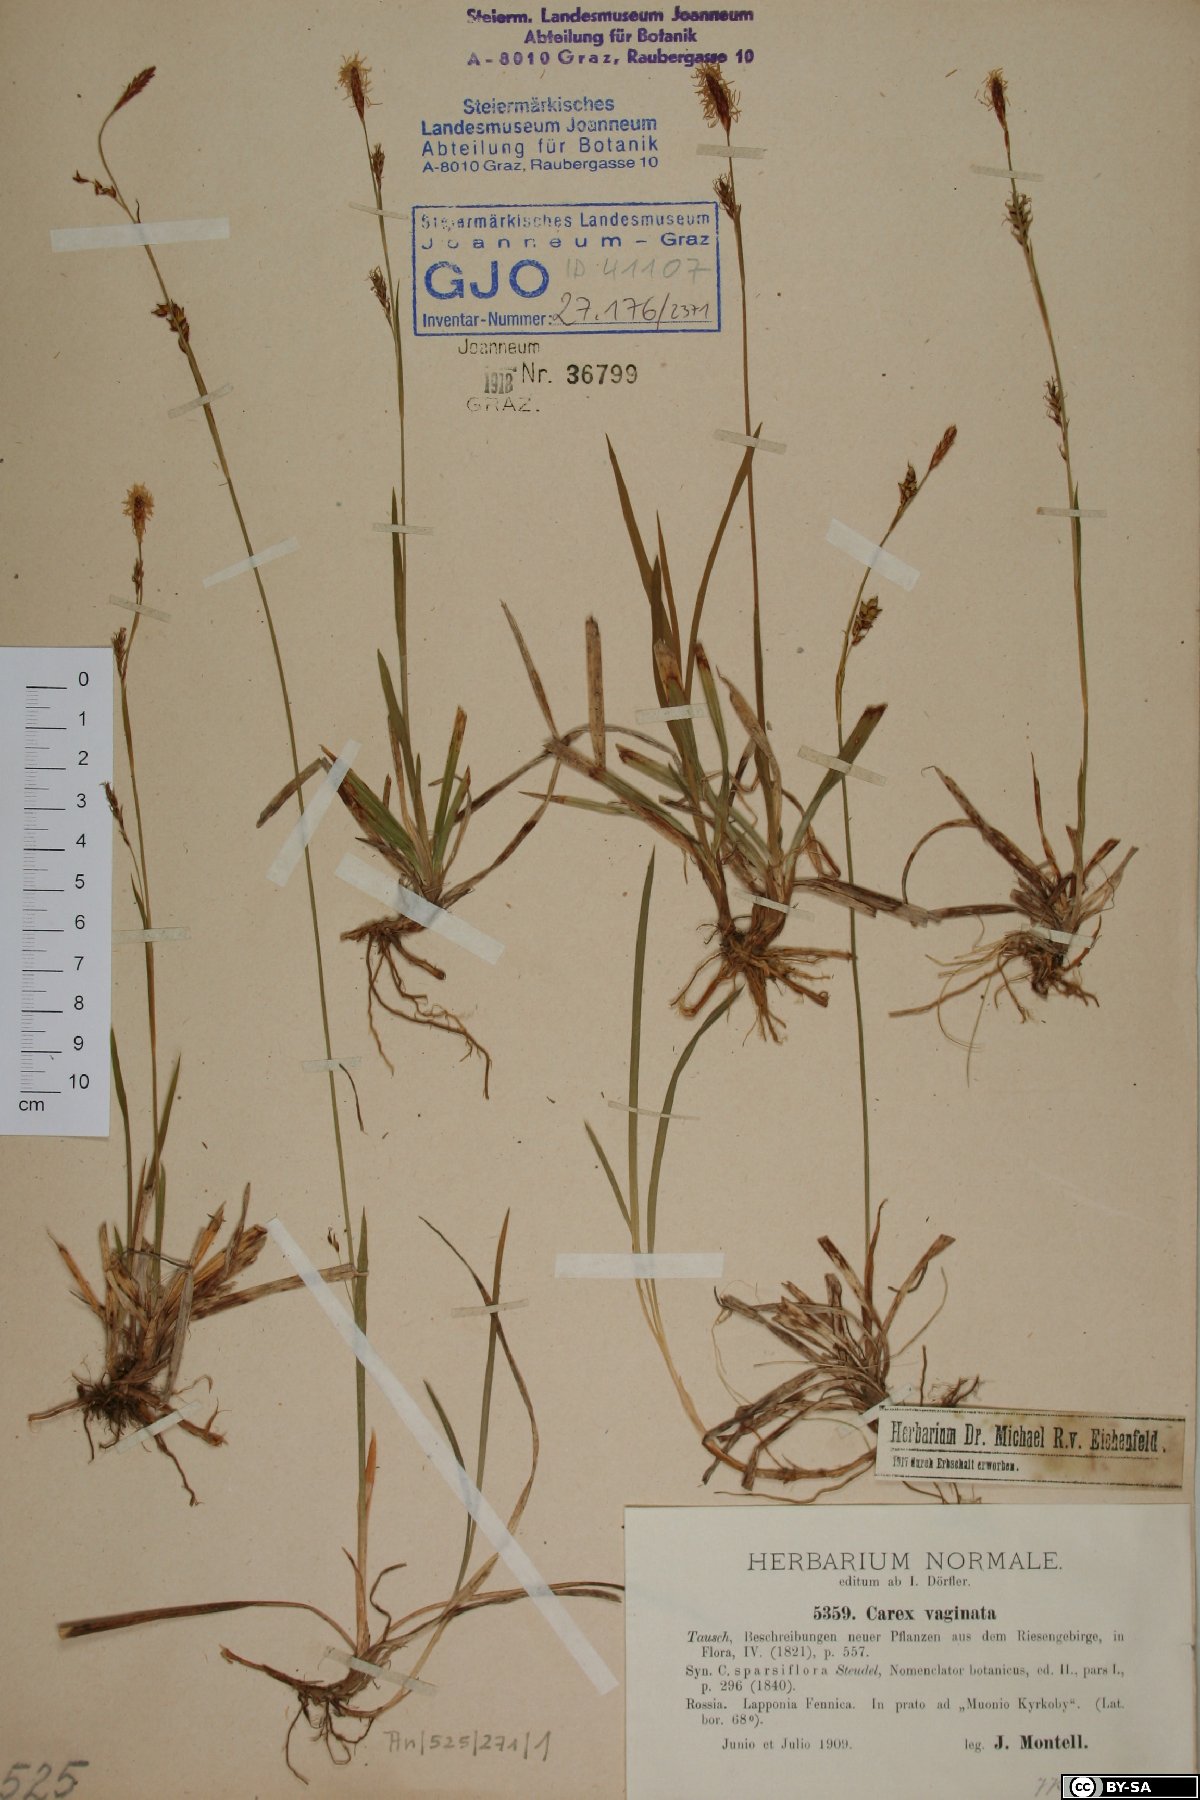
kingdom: Plantae
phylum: Tracheophyta
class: Liliopsida
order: Poales
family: Cyperaceae
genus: Carex
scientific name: Carex vaginata
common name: Sheathed sedge
